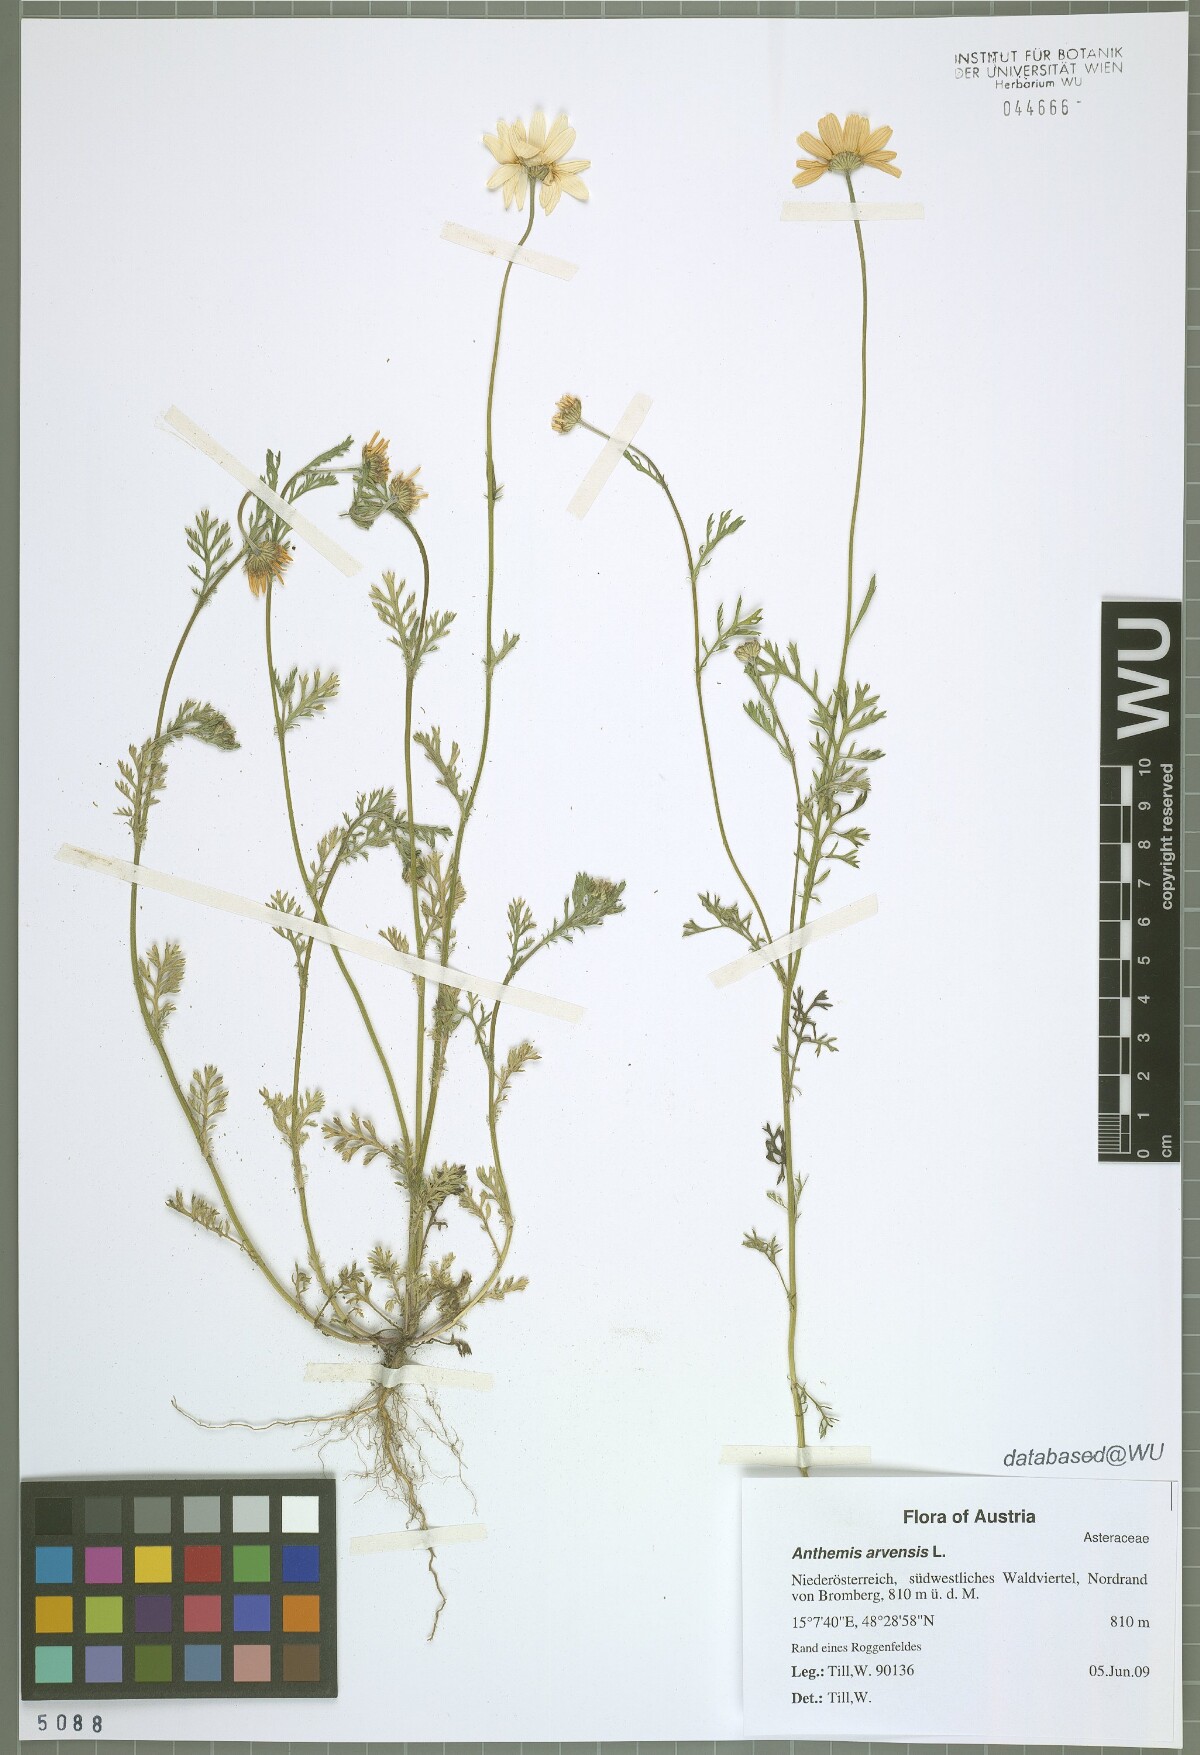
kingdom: Plantae
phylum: Tracheophyta
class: Magnoliopsida
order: Asterales
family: Asteraceae
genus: Anthemis
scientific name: Anthemis arvensis
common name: Corn chamomile
